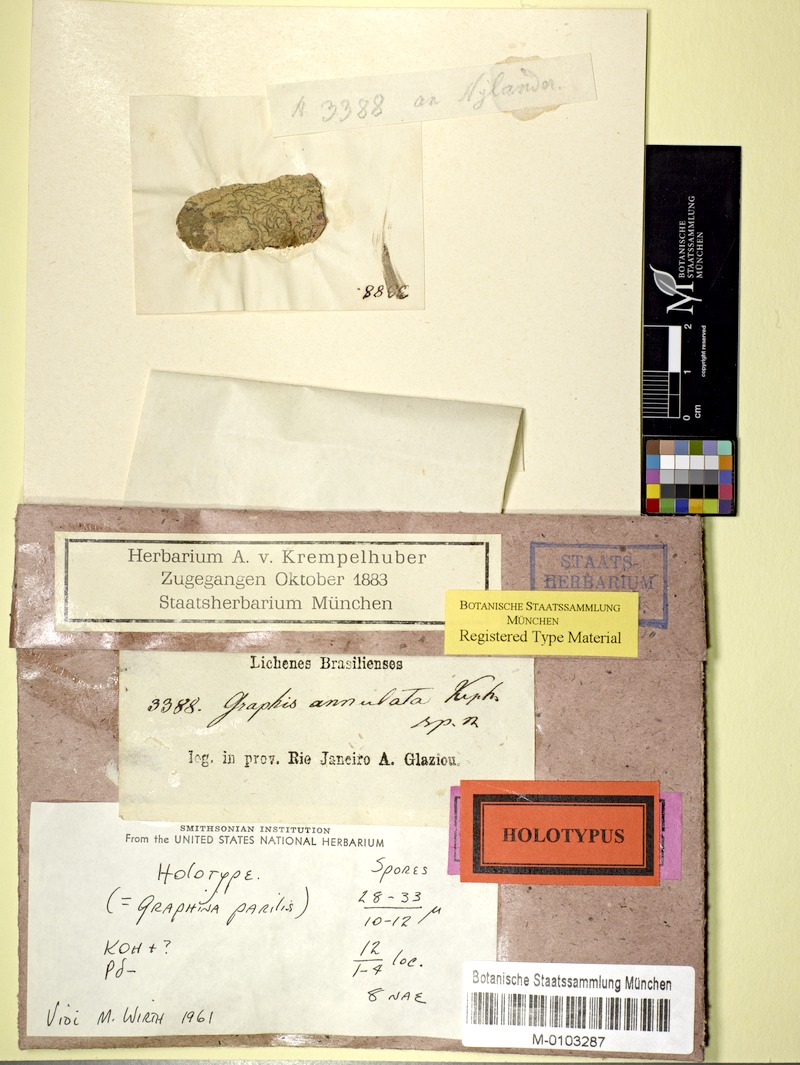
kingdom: Fungi
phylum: Ascomycota
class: Lecanoromycetes
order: Ostropales
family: Graphidaceae
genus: Graphis
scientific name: Graphis parilis
